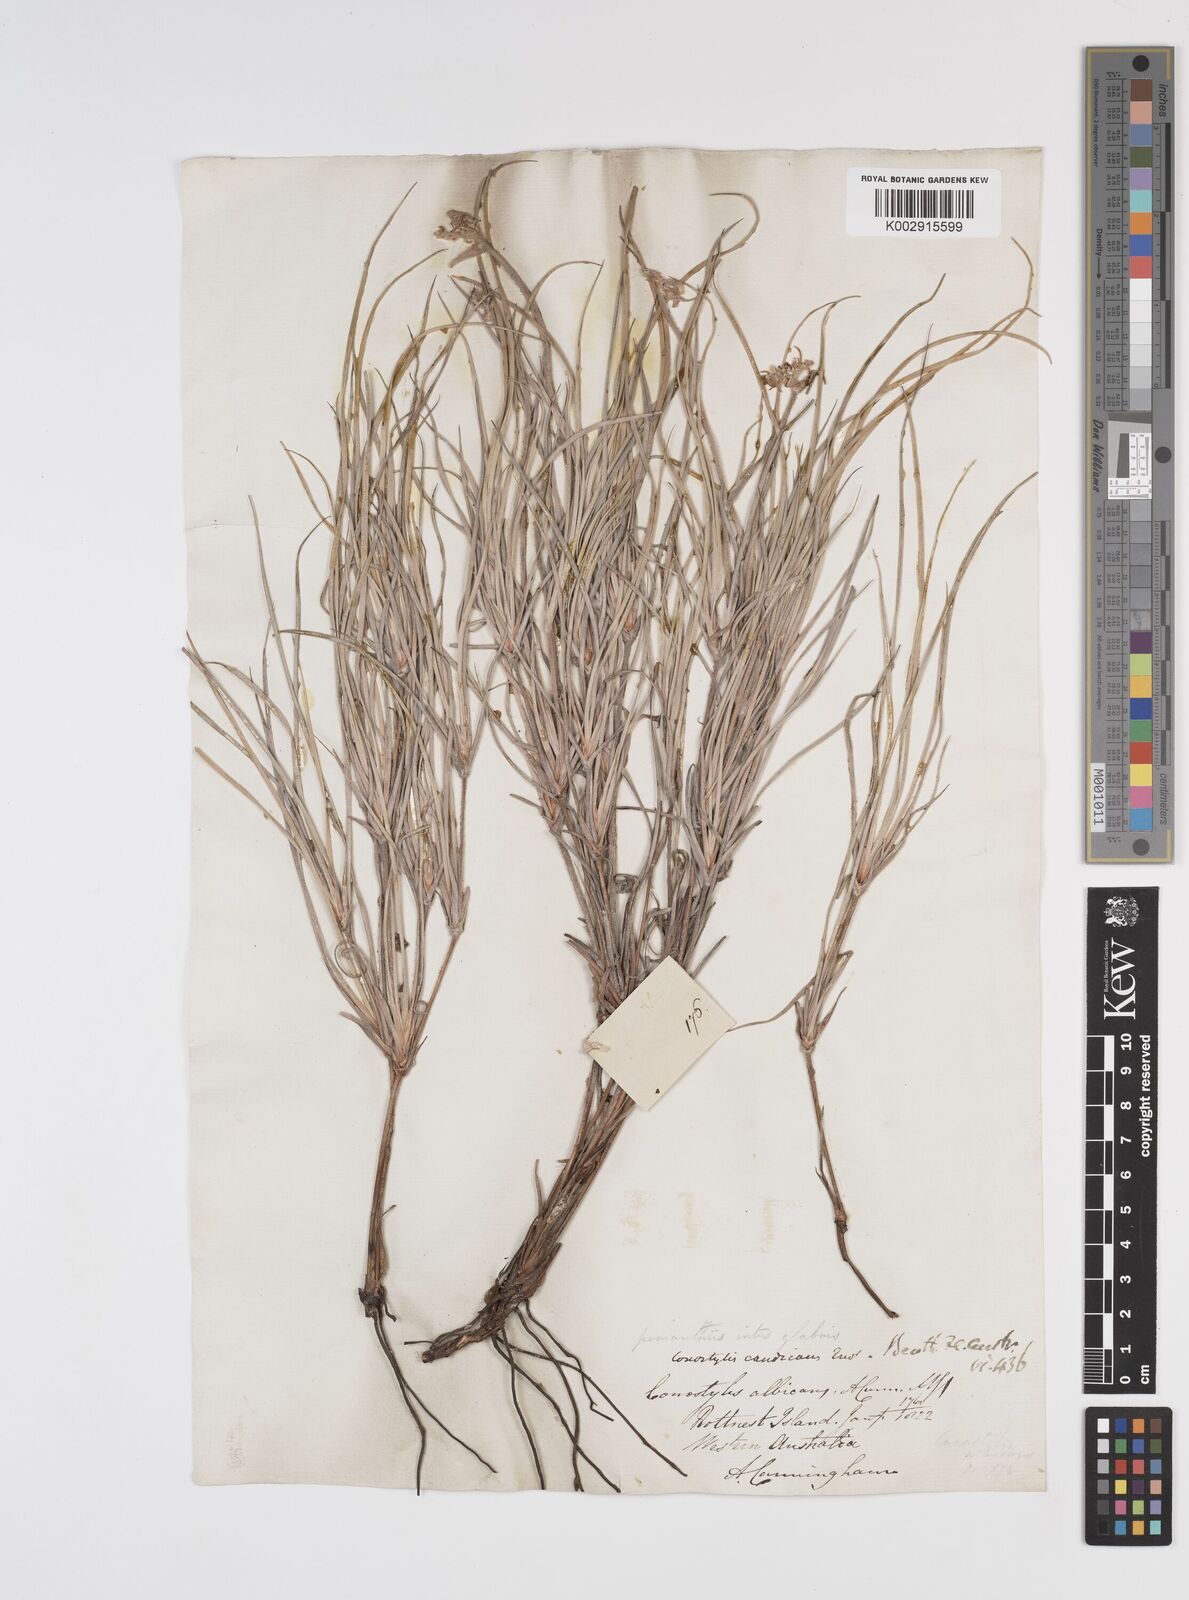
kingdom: Plantae
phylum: Tracheophyta
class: Liliopsida
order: Commelinales
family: Haemodoraceae
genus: Conostylis
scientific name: Conostylis candicans
